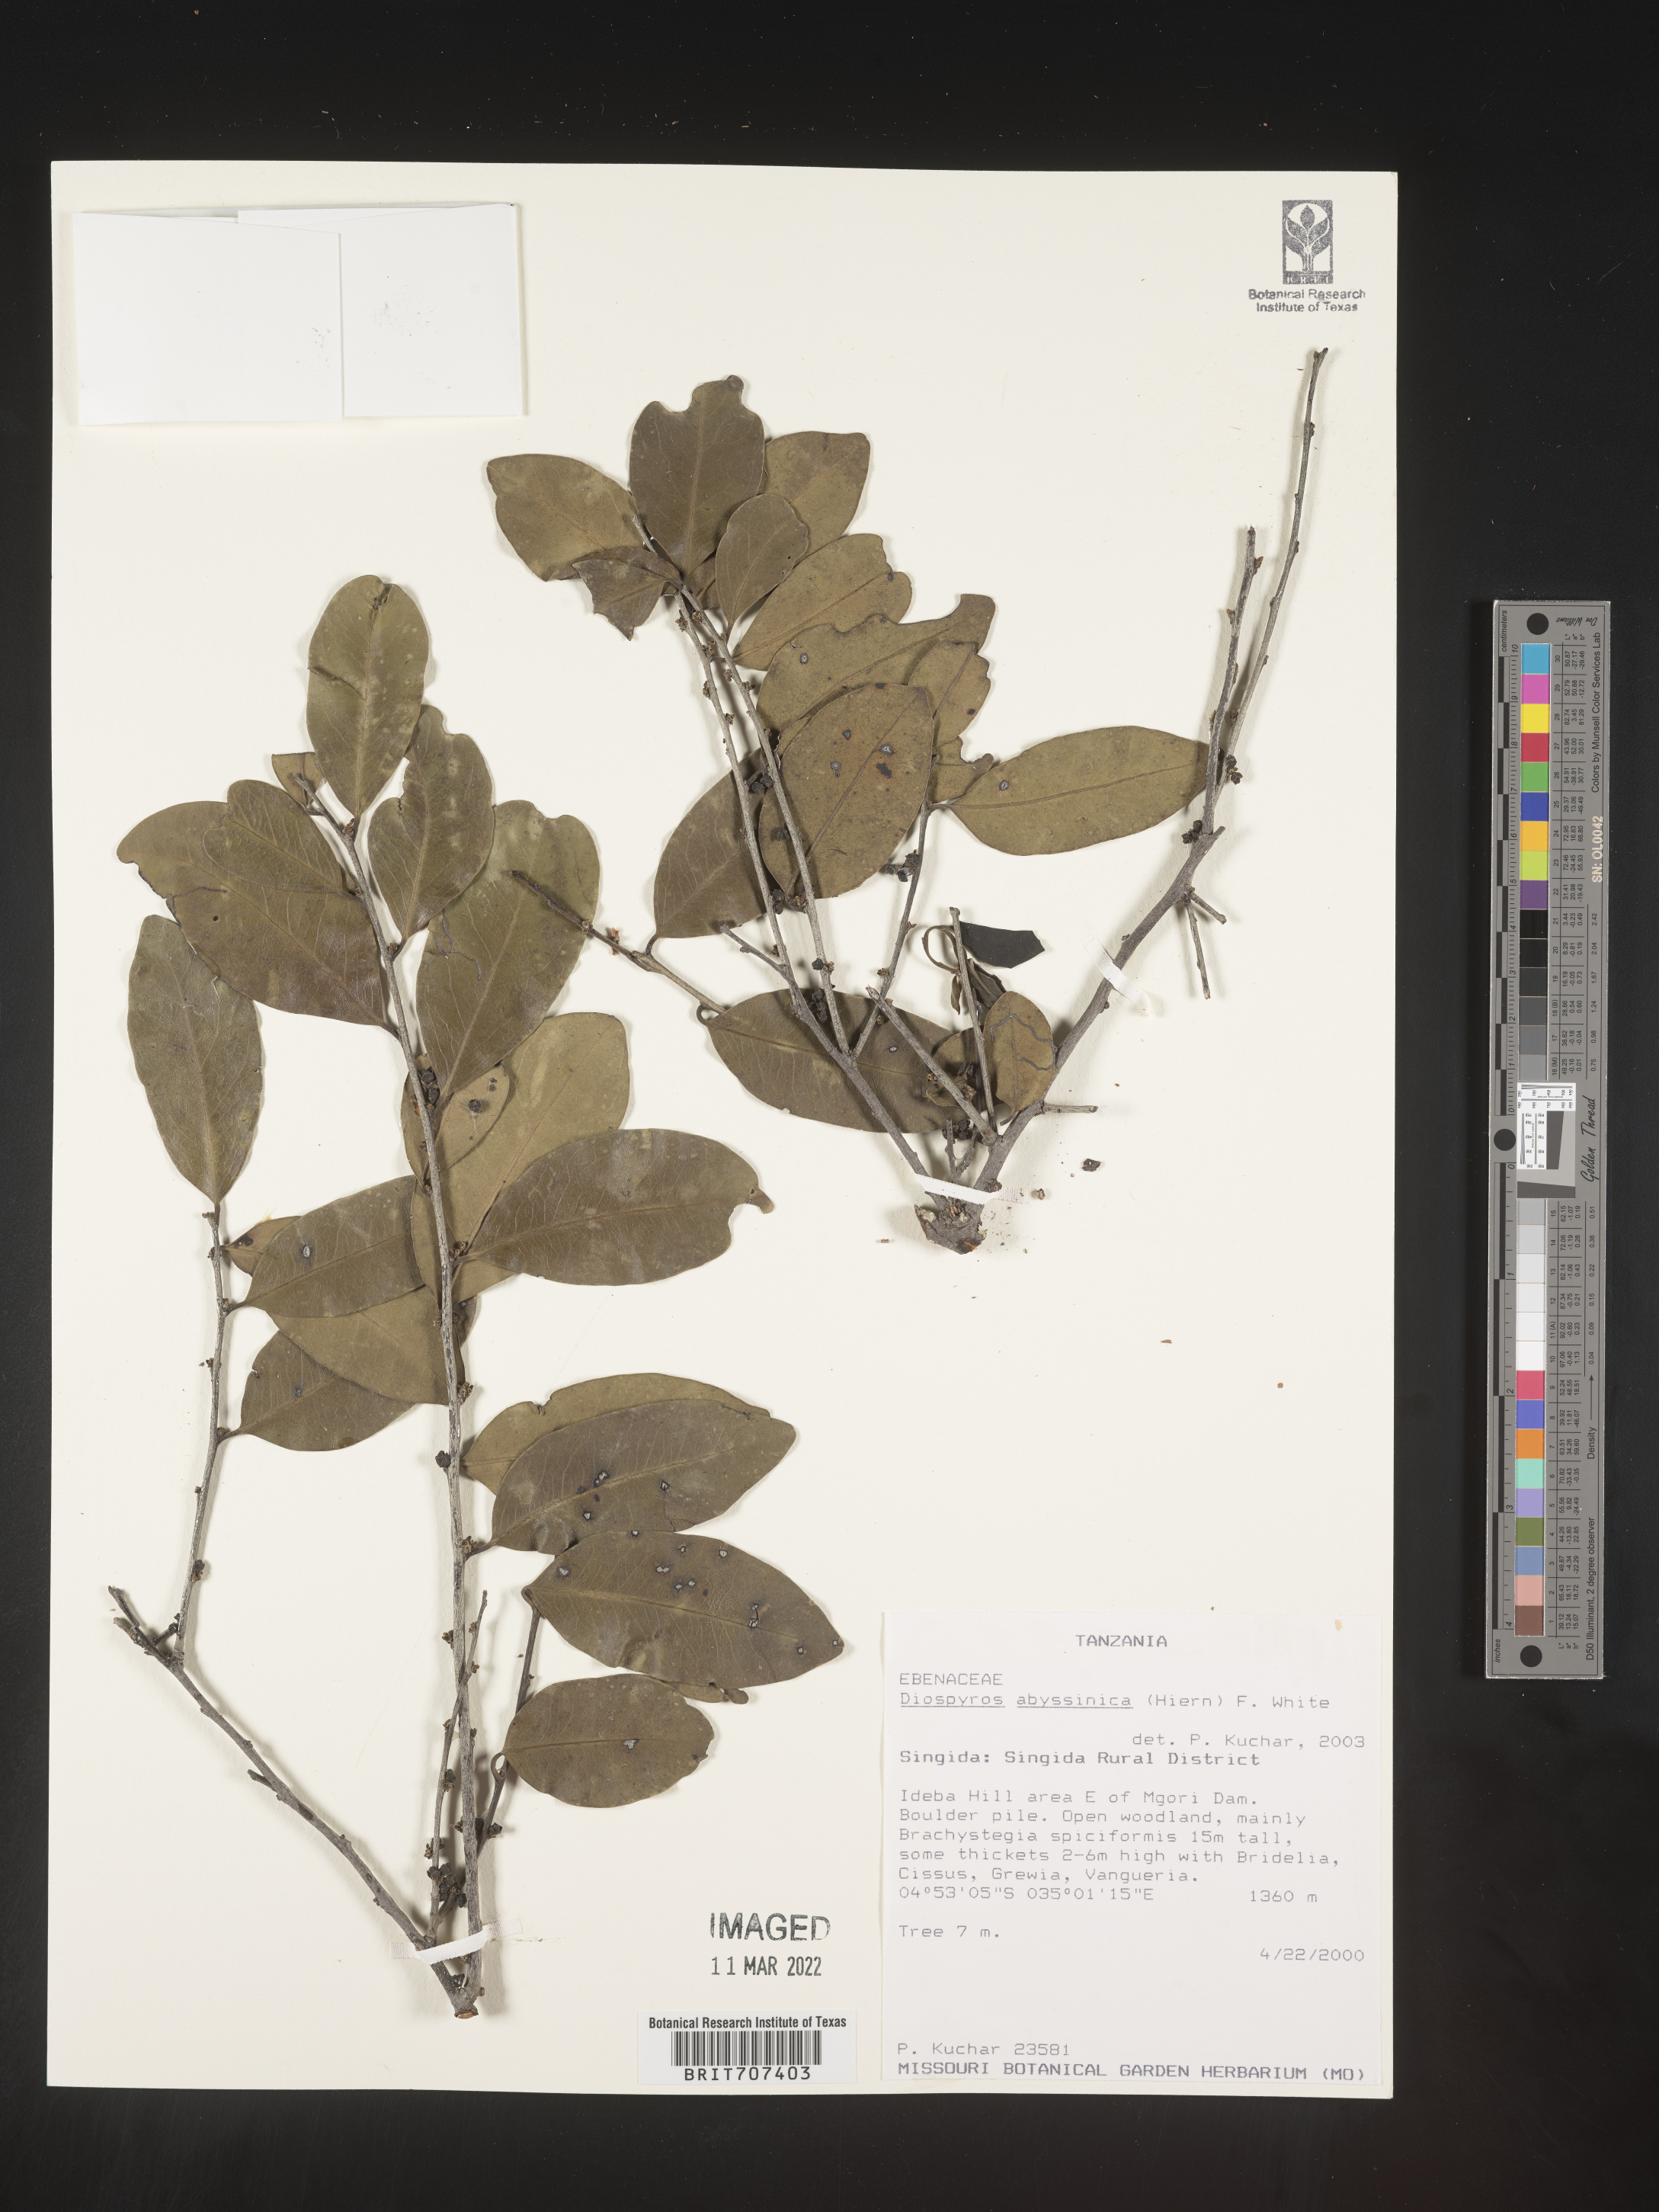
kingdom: Plantae
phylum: Tracheophyta
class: Magnoliopsida
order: Ericales
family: Ebenaceae
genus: Diospyros
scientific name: Diospyros
